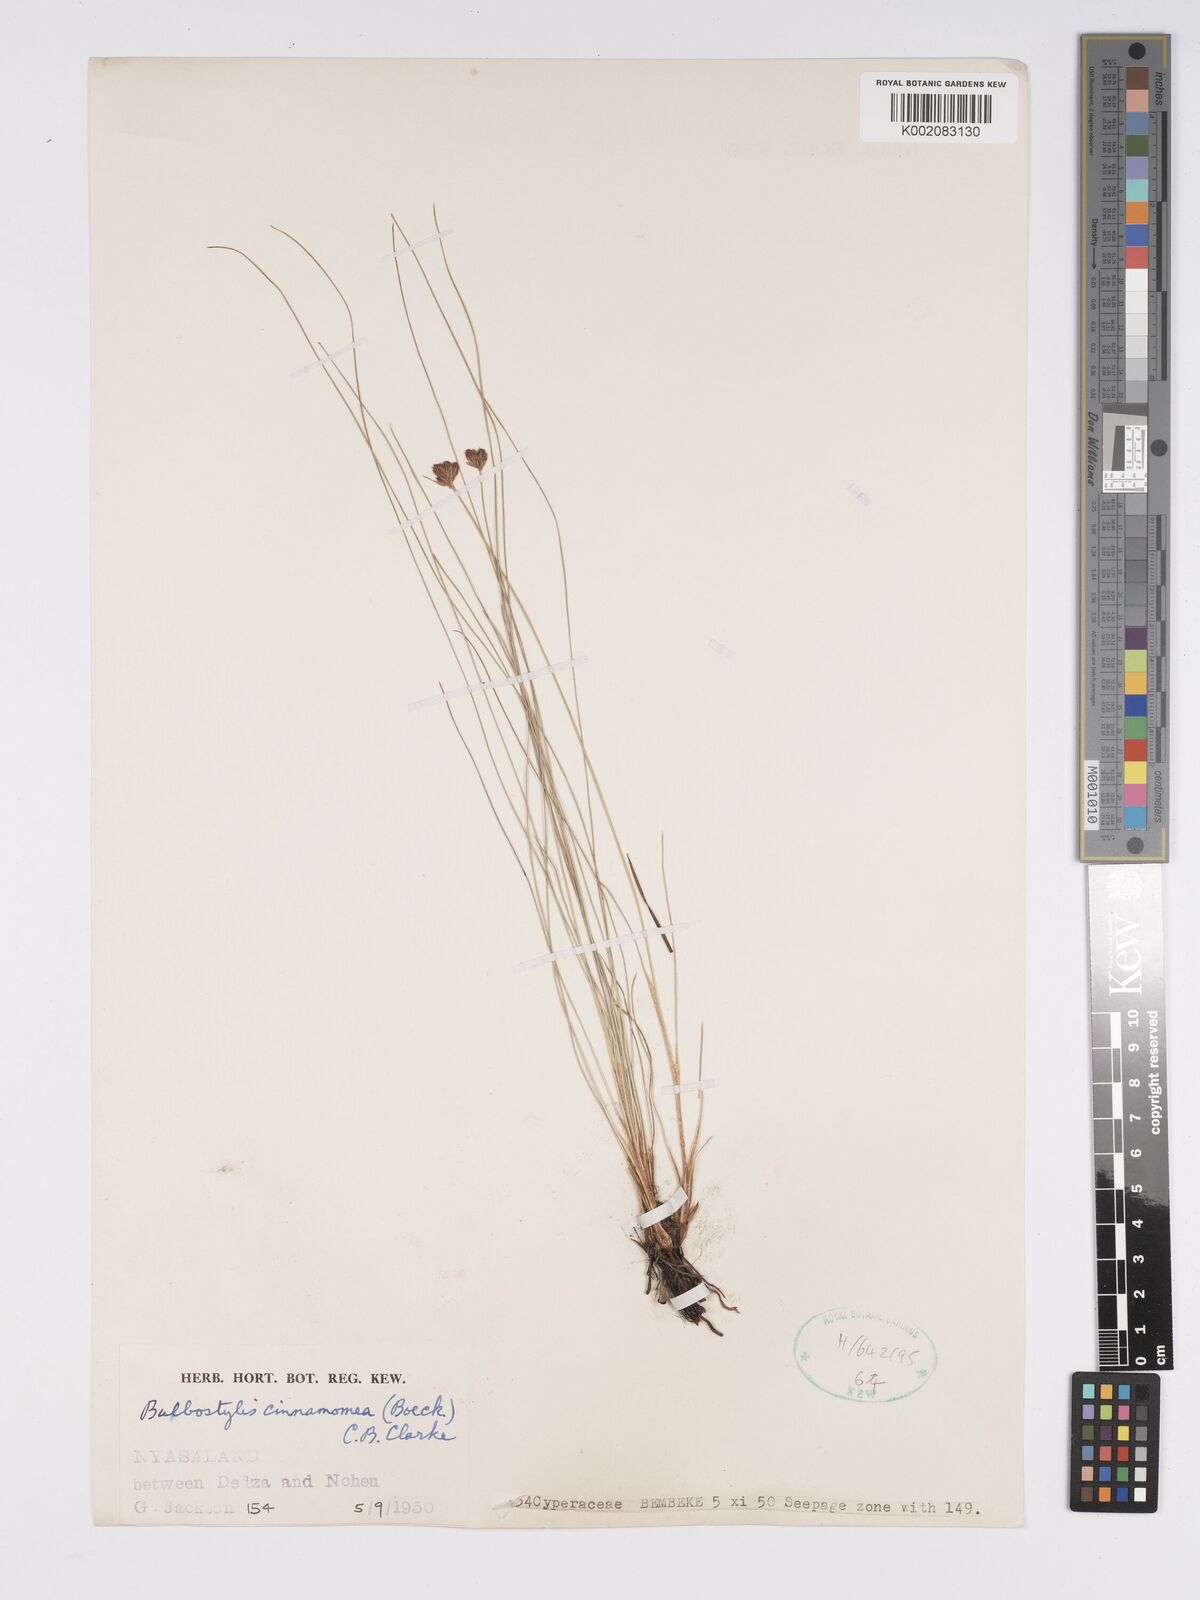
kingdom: Plantae
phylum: Tracheophyta
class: Liliopsida
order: Poales
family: Cyperaceae
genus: Bulbostylis
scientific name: Bulbostylis schoenoides
